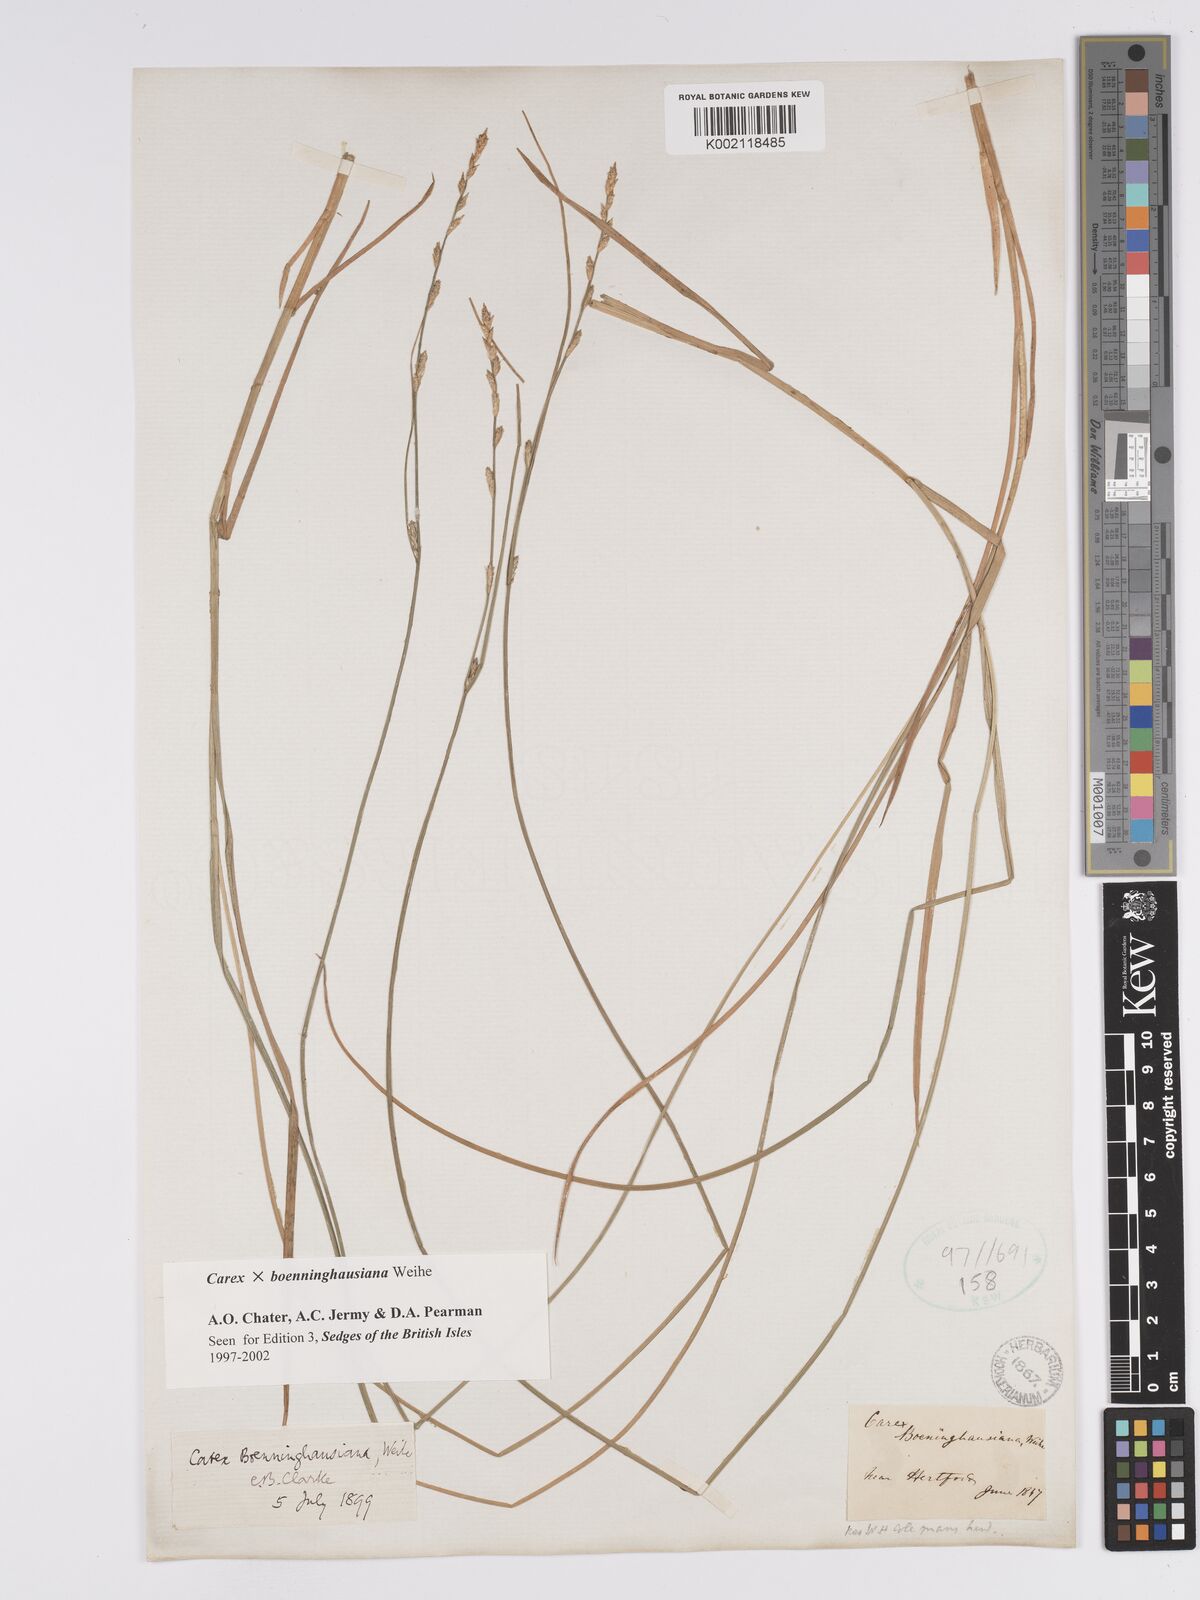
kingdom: Plantae
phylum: Tracheophyta
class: Liliopsida
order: Poales
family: Cyperaceae
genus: Carex
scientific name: Carex boenninghausiana
